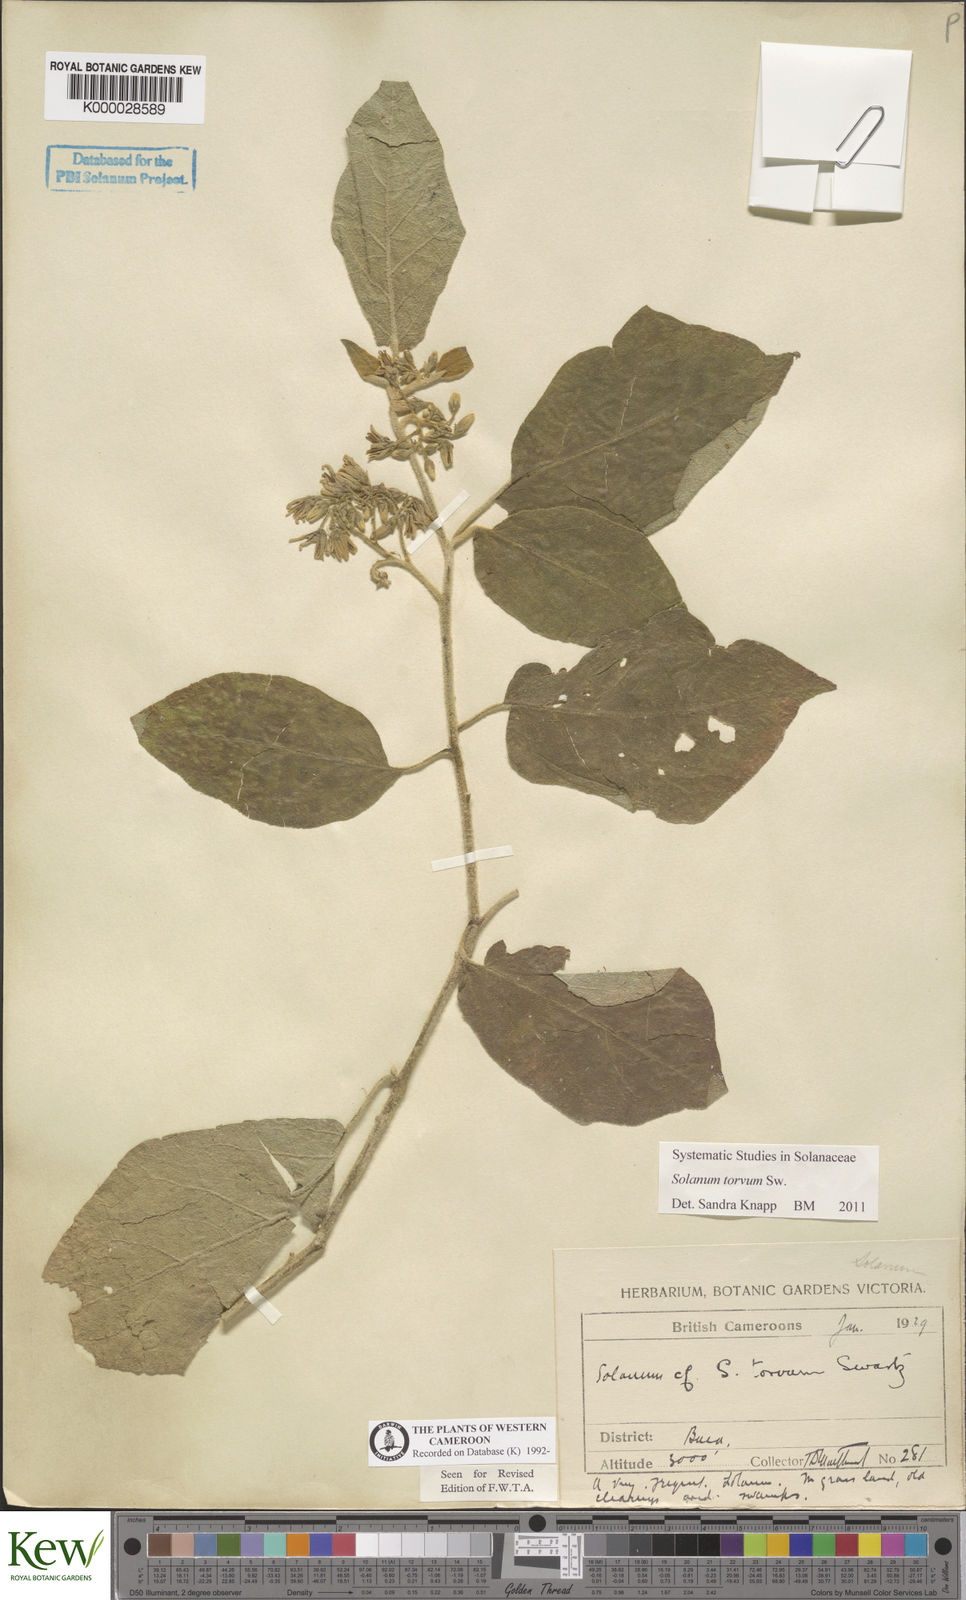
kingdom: Plantae
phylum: Tracheophyta
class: Magnoliopsida
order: Solanales
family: Solanaceae
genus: Solanum
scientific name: Solanum torvum
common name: Turkey berry
